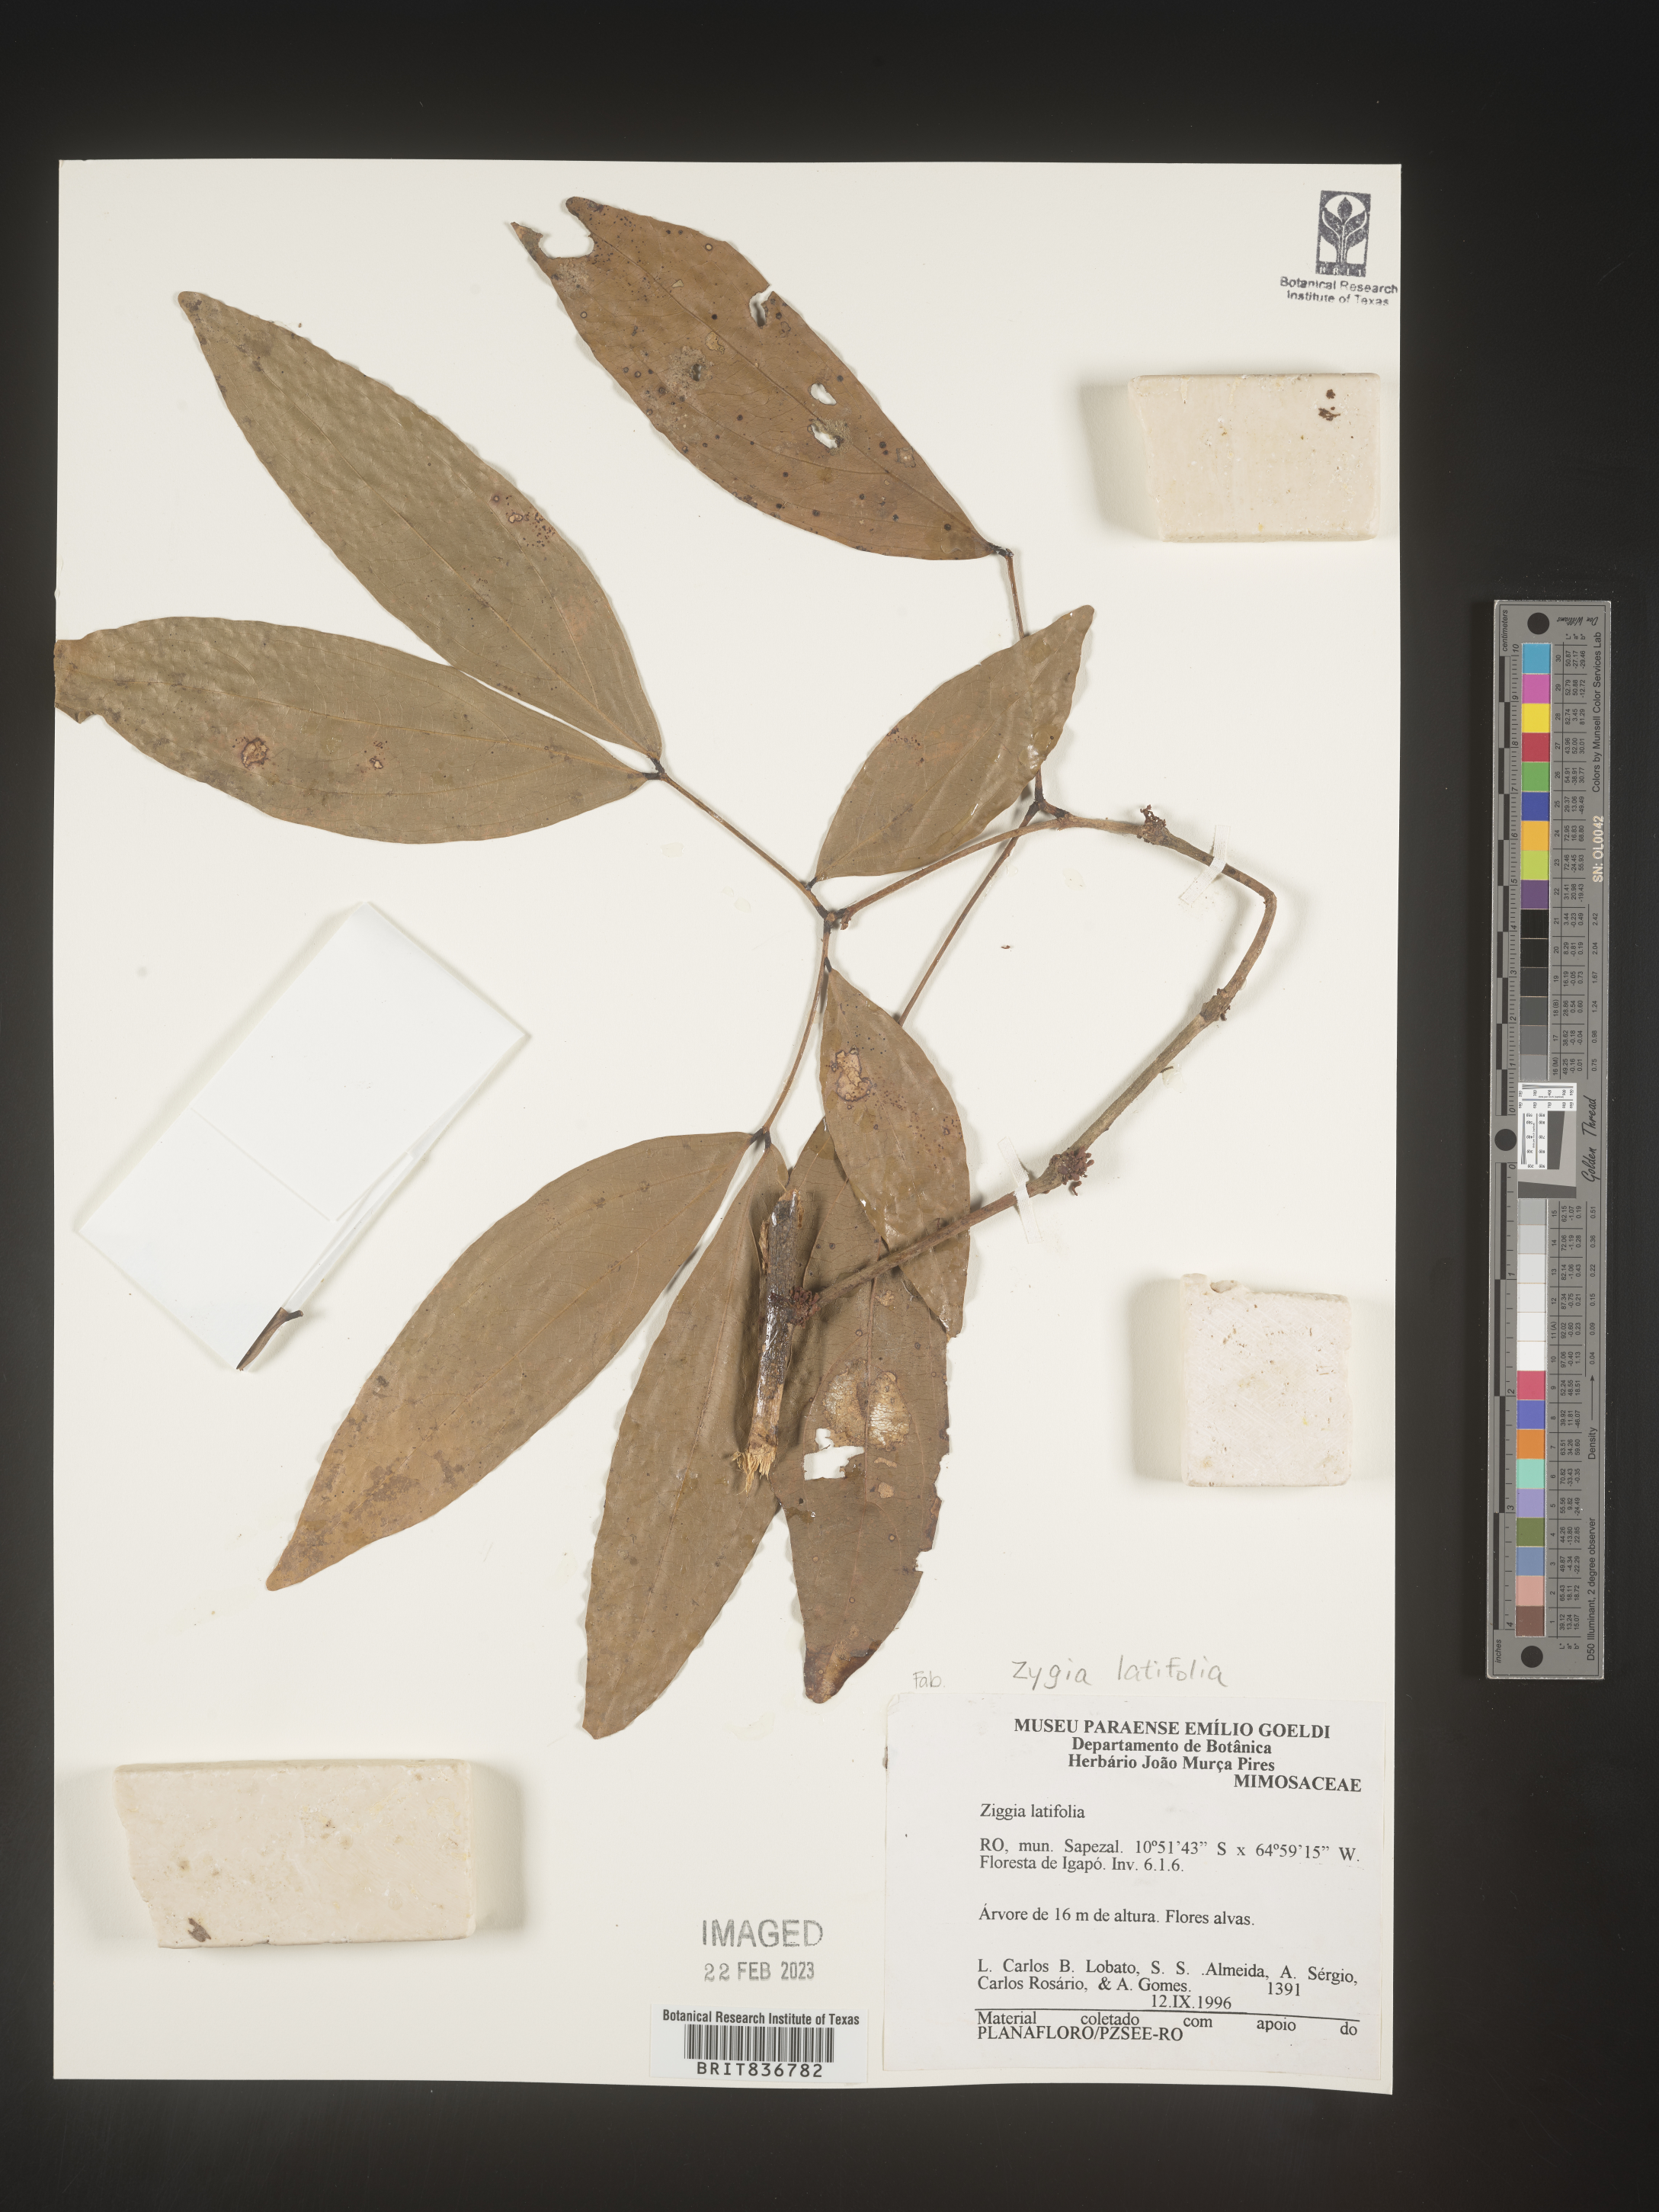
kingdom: Plantae
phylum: Tracheophyta
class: Magnoliopsida
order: Fabales
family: Fabaceae
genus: Zygia
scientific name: Zygia
